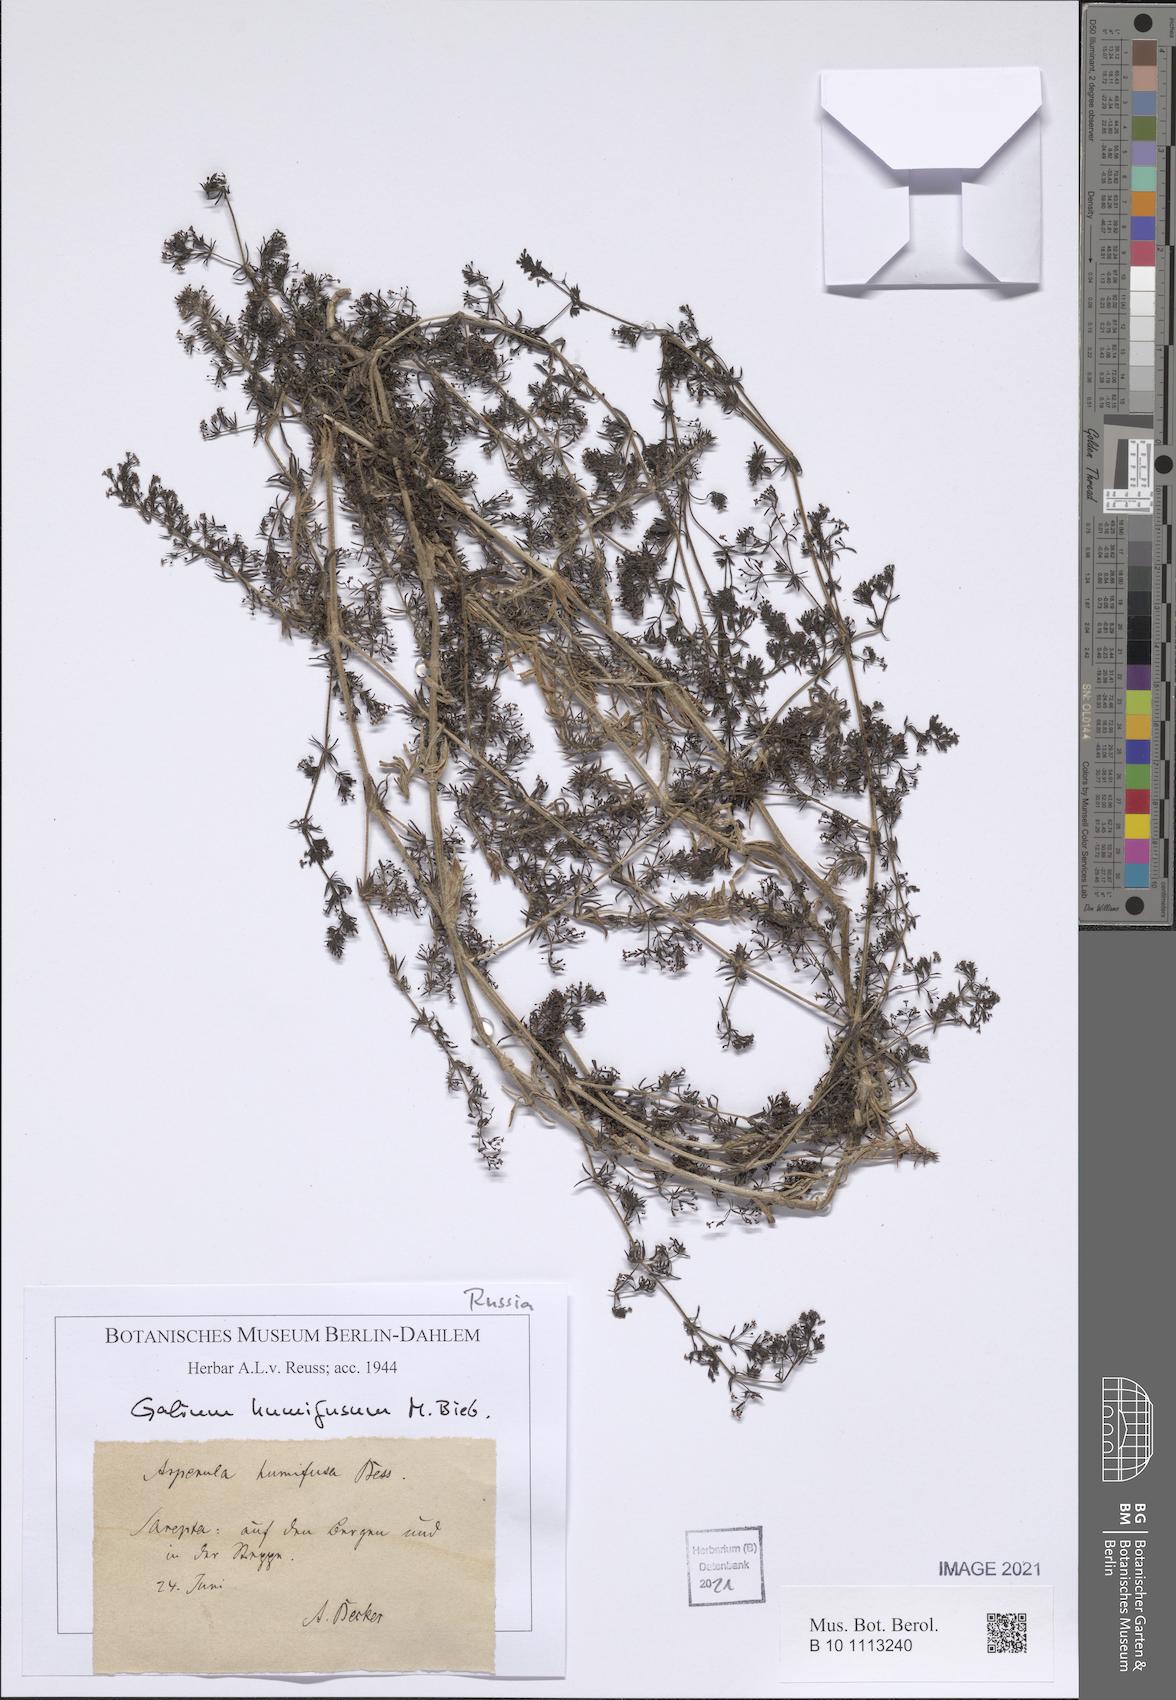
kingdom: Plantae
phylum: Tracheophyta
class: Magnoliopsida
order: Gentianales
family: Rubiaceae
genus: Galium
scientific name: Galium humifusum
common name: Spreading bedstraw
